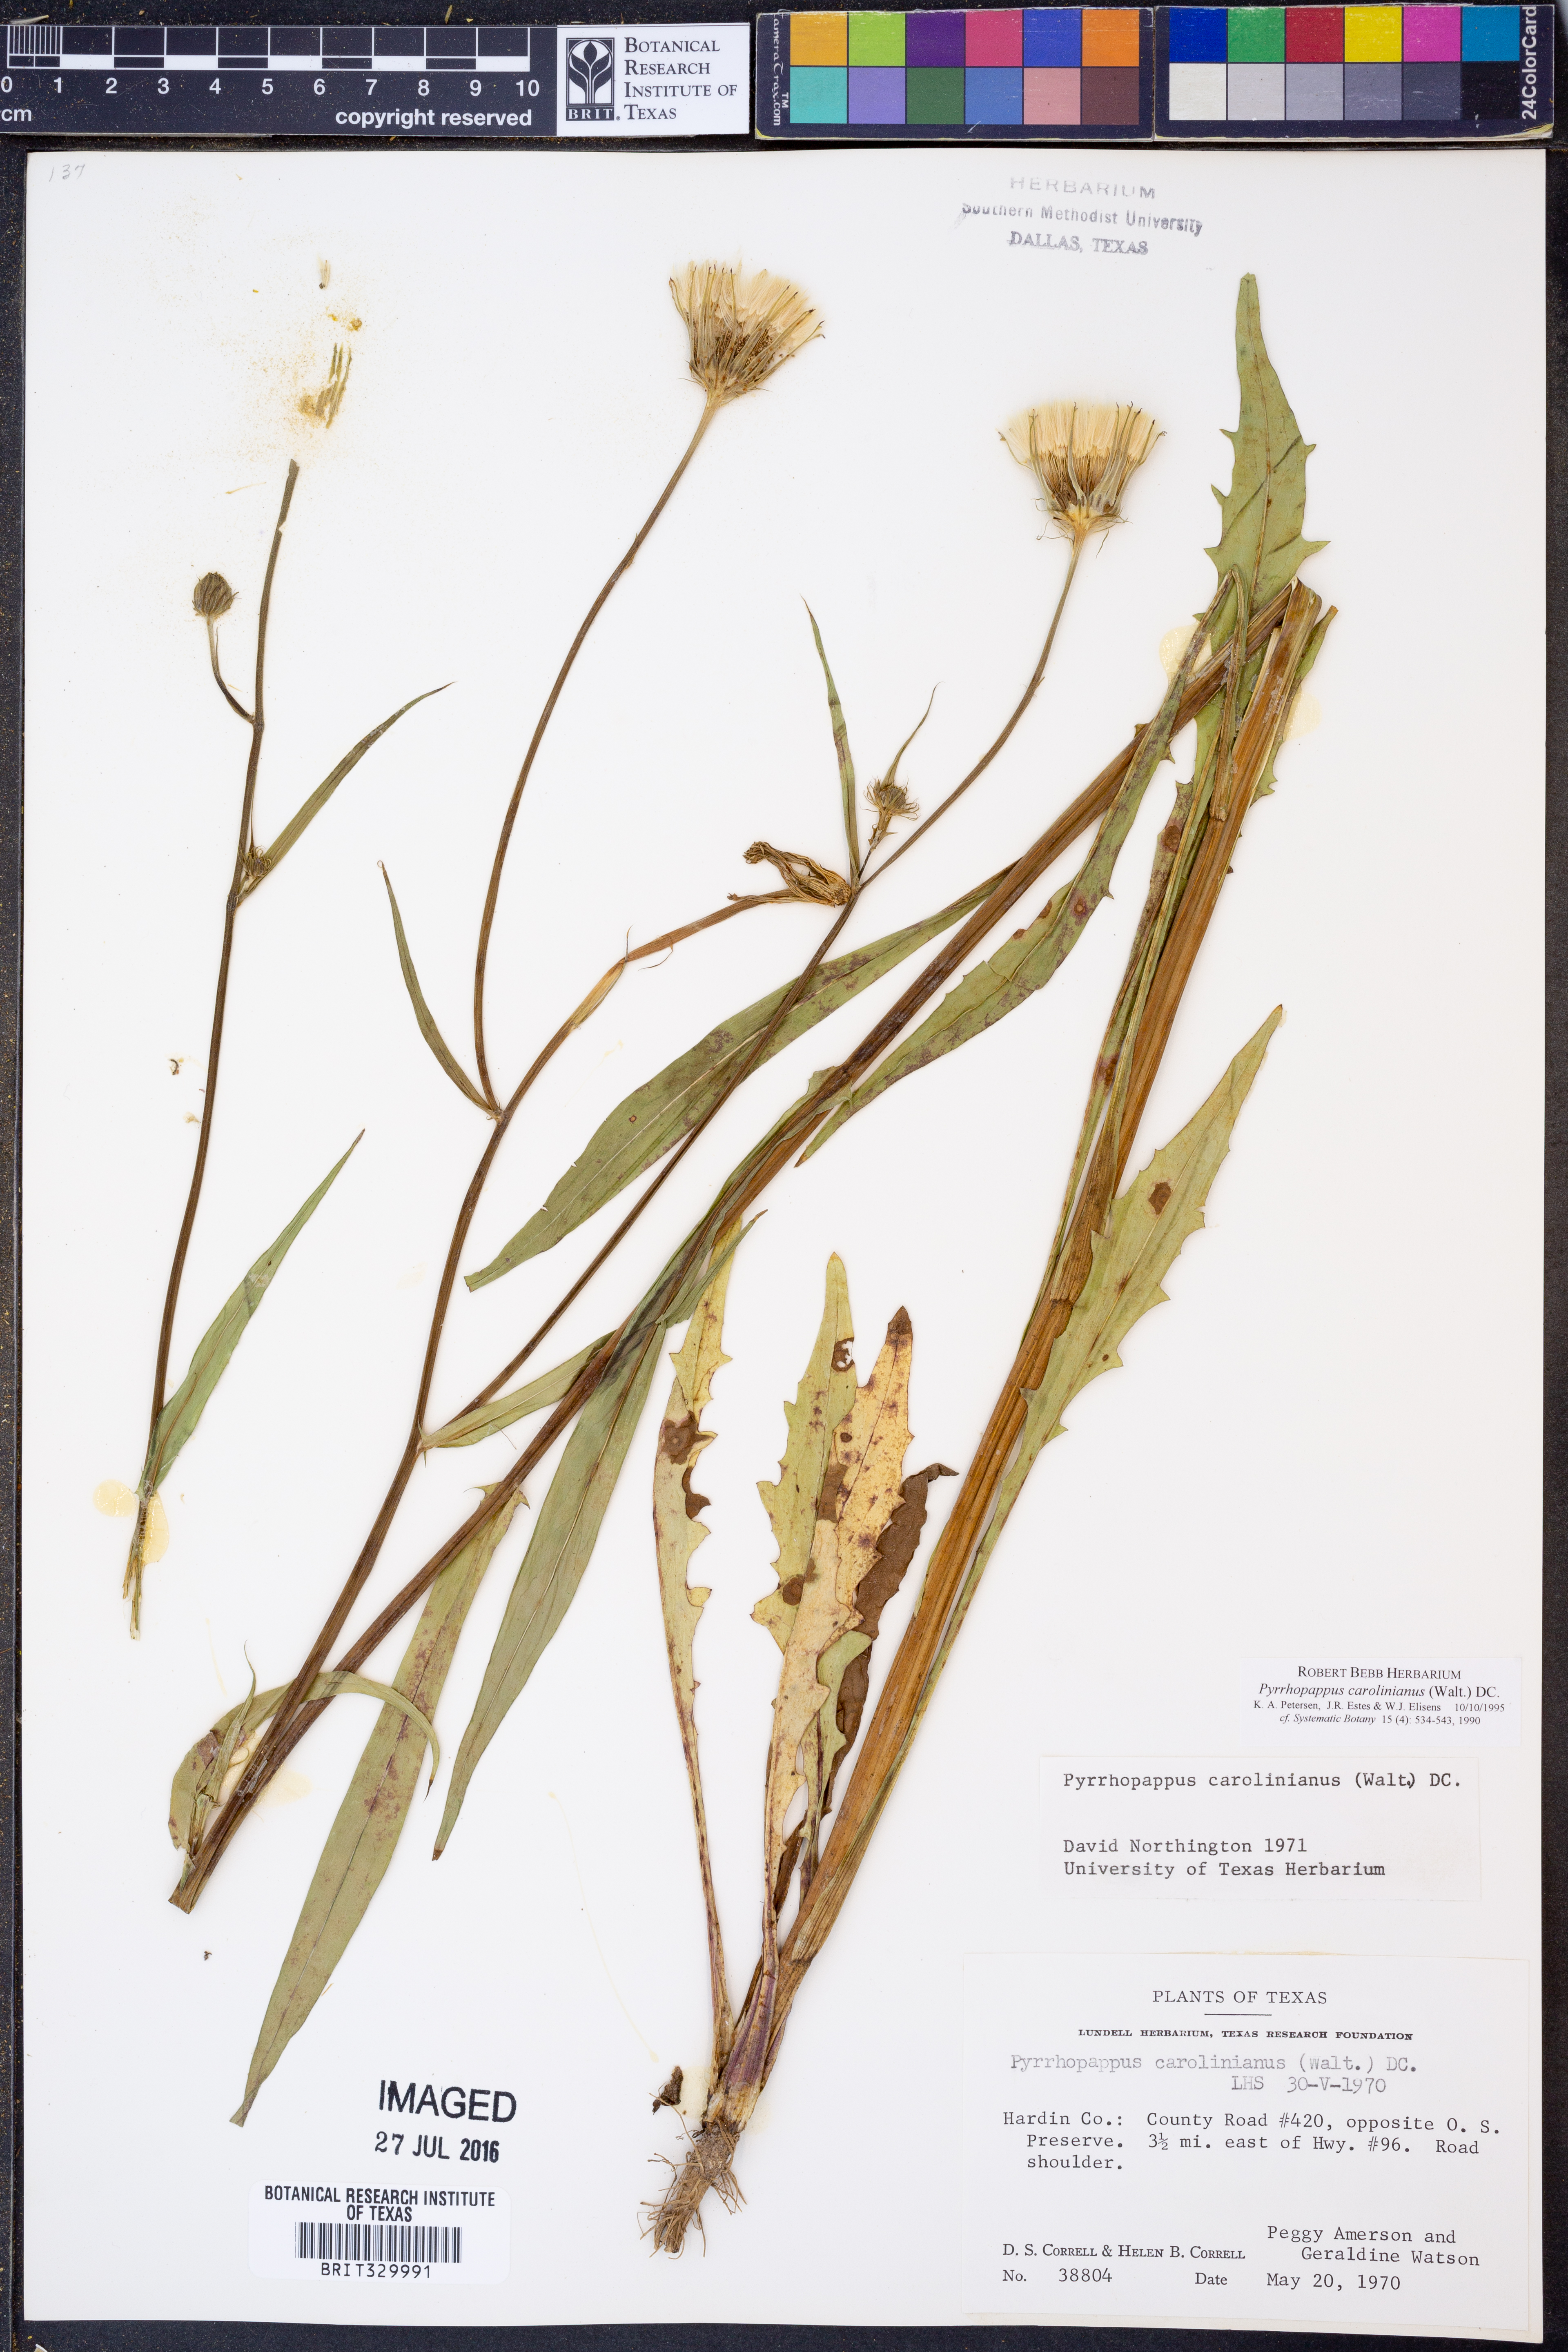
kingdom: Plantae
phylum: Tracheophyta
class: Magnoliopsida
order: Asterales
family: Asteraceae
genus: Pyrrhopappus
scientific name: Pyrrhopappus carolinianus
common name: Carolina desert-chicory
